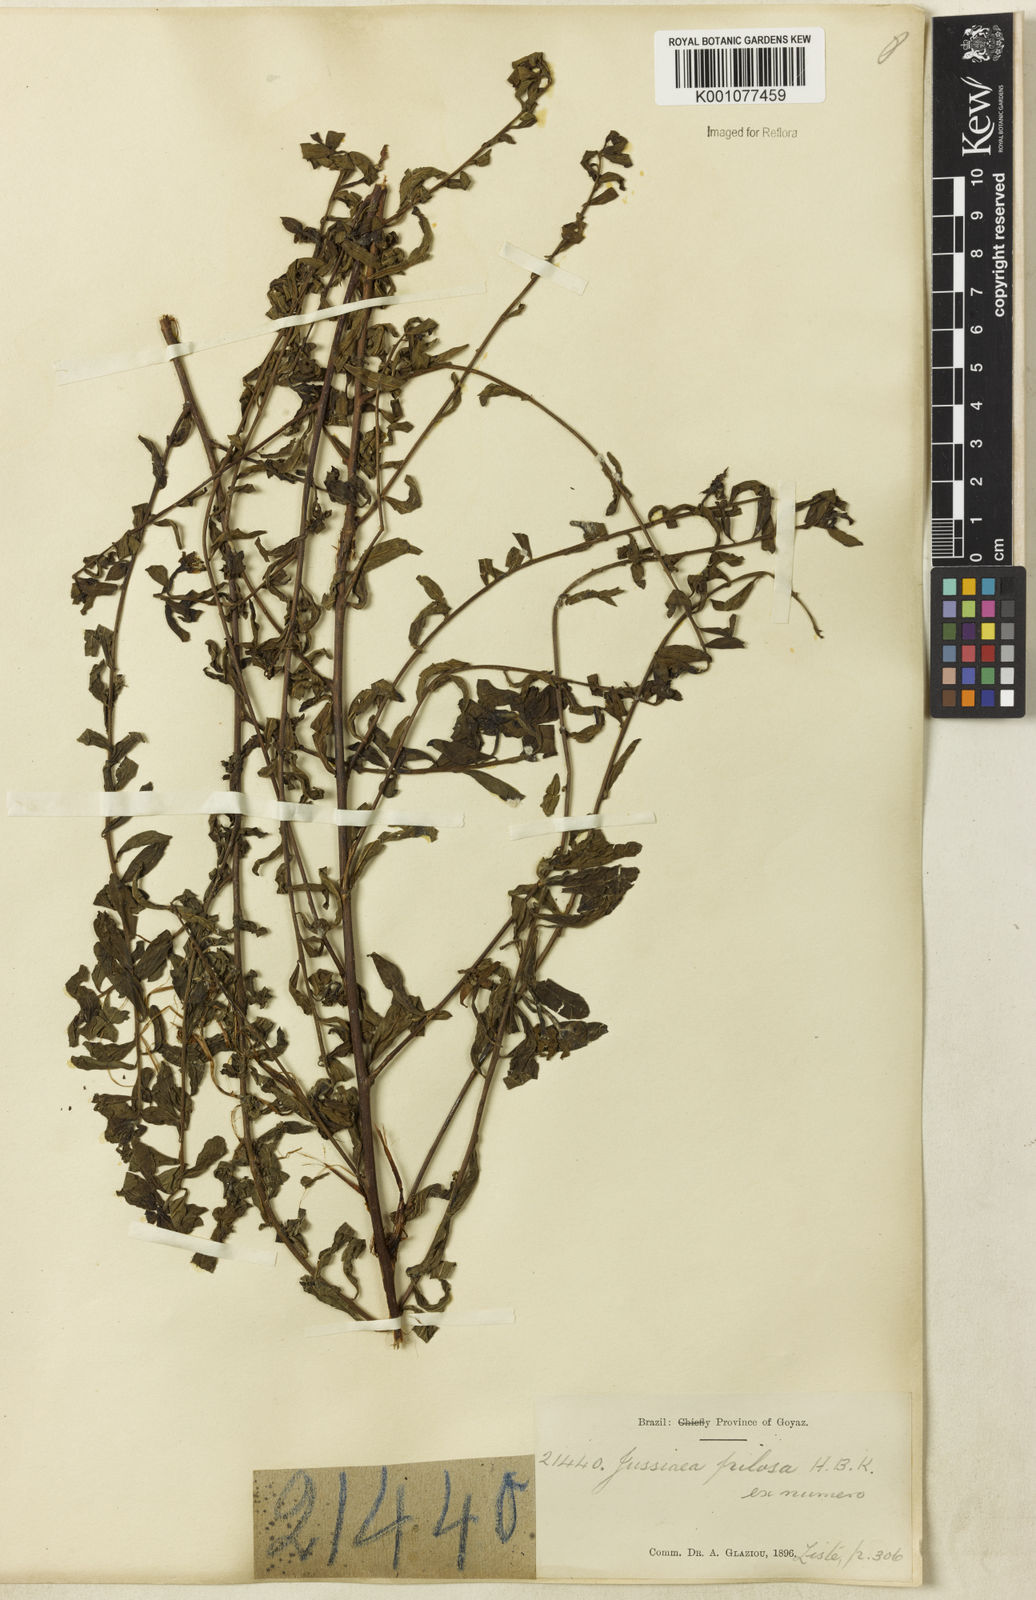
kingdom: Plantae
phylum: Tracheophyta
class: Magnoliopsida
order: Myrtales
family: Onagraceae
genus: Ludwigia
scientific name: Ludwigia leptocarpa
